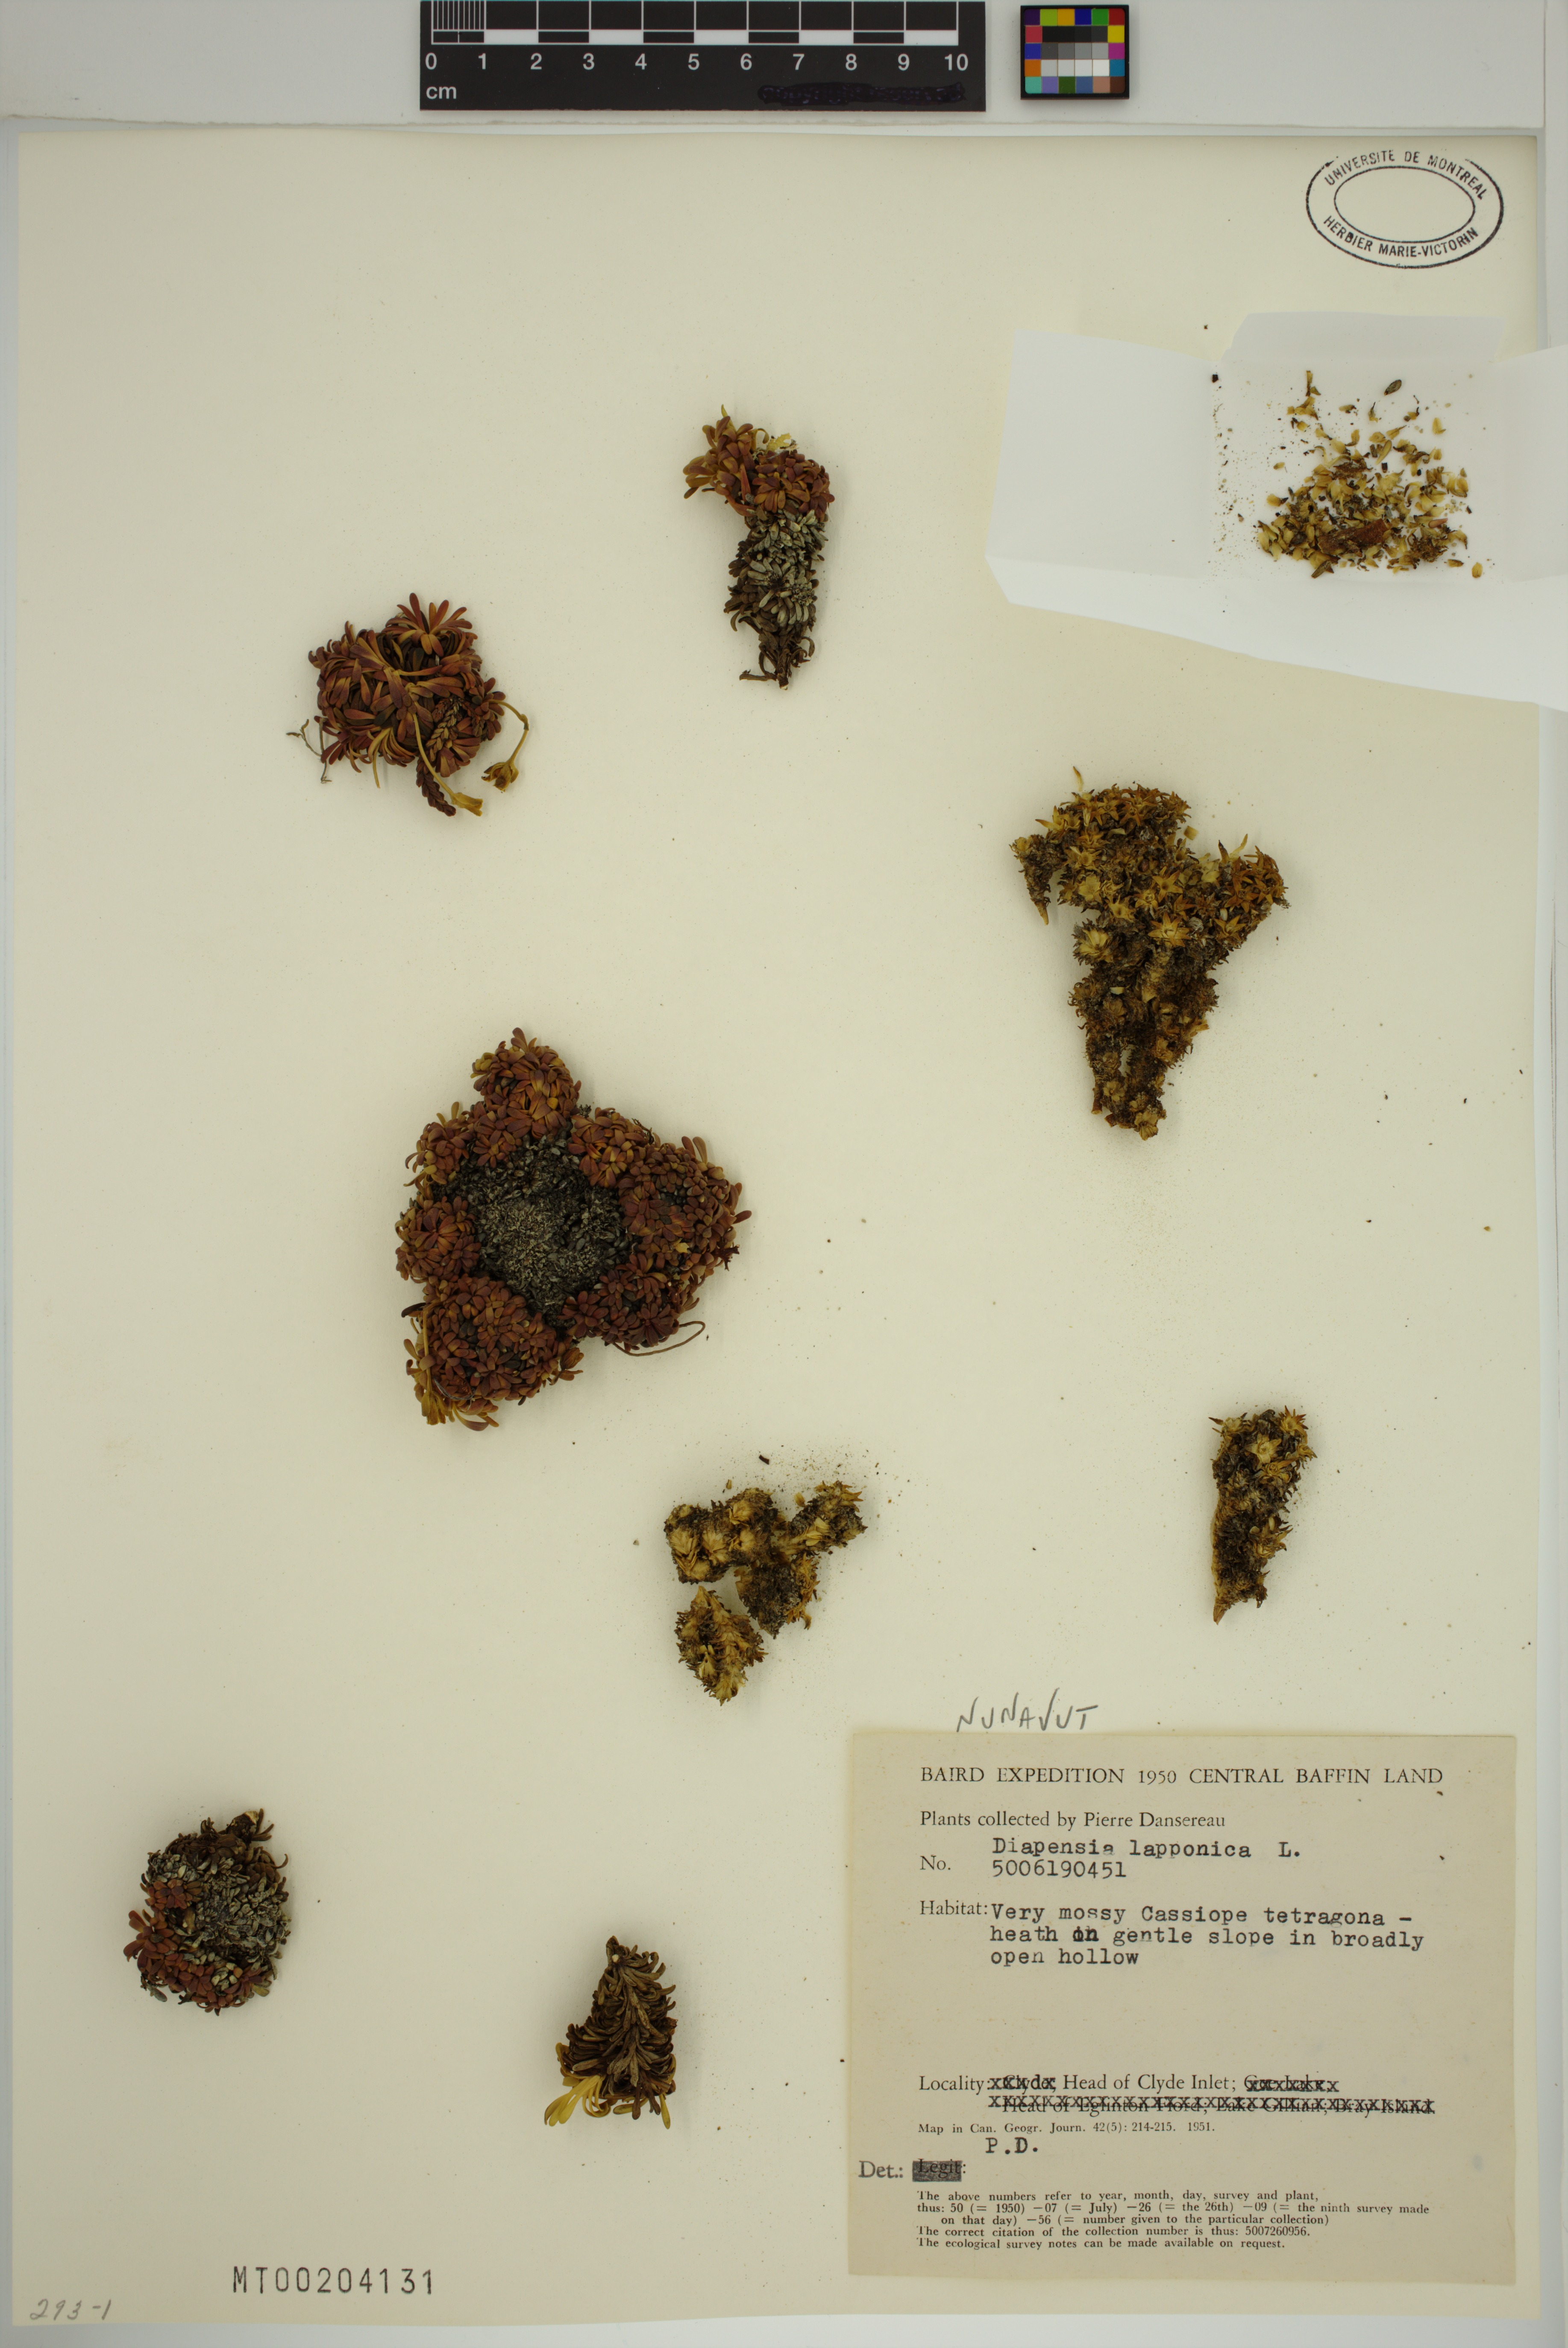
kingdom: Plantae
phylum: Tracheophyta
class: Magnoliopsida
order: Ericales
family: Diapensiaceae
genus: Diapensia
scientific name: Diapensia lapponica
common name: Diapensia
